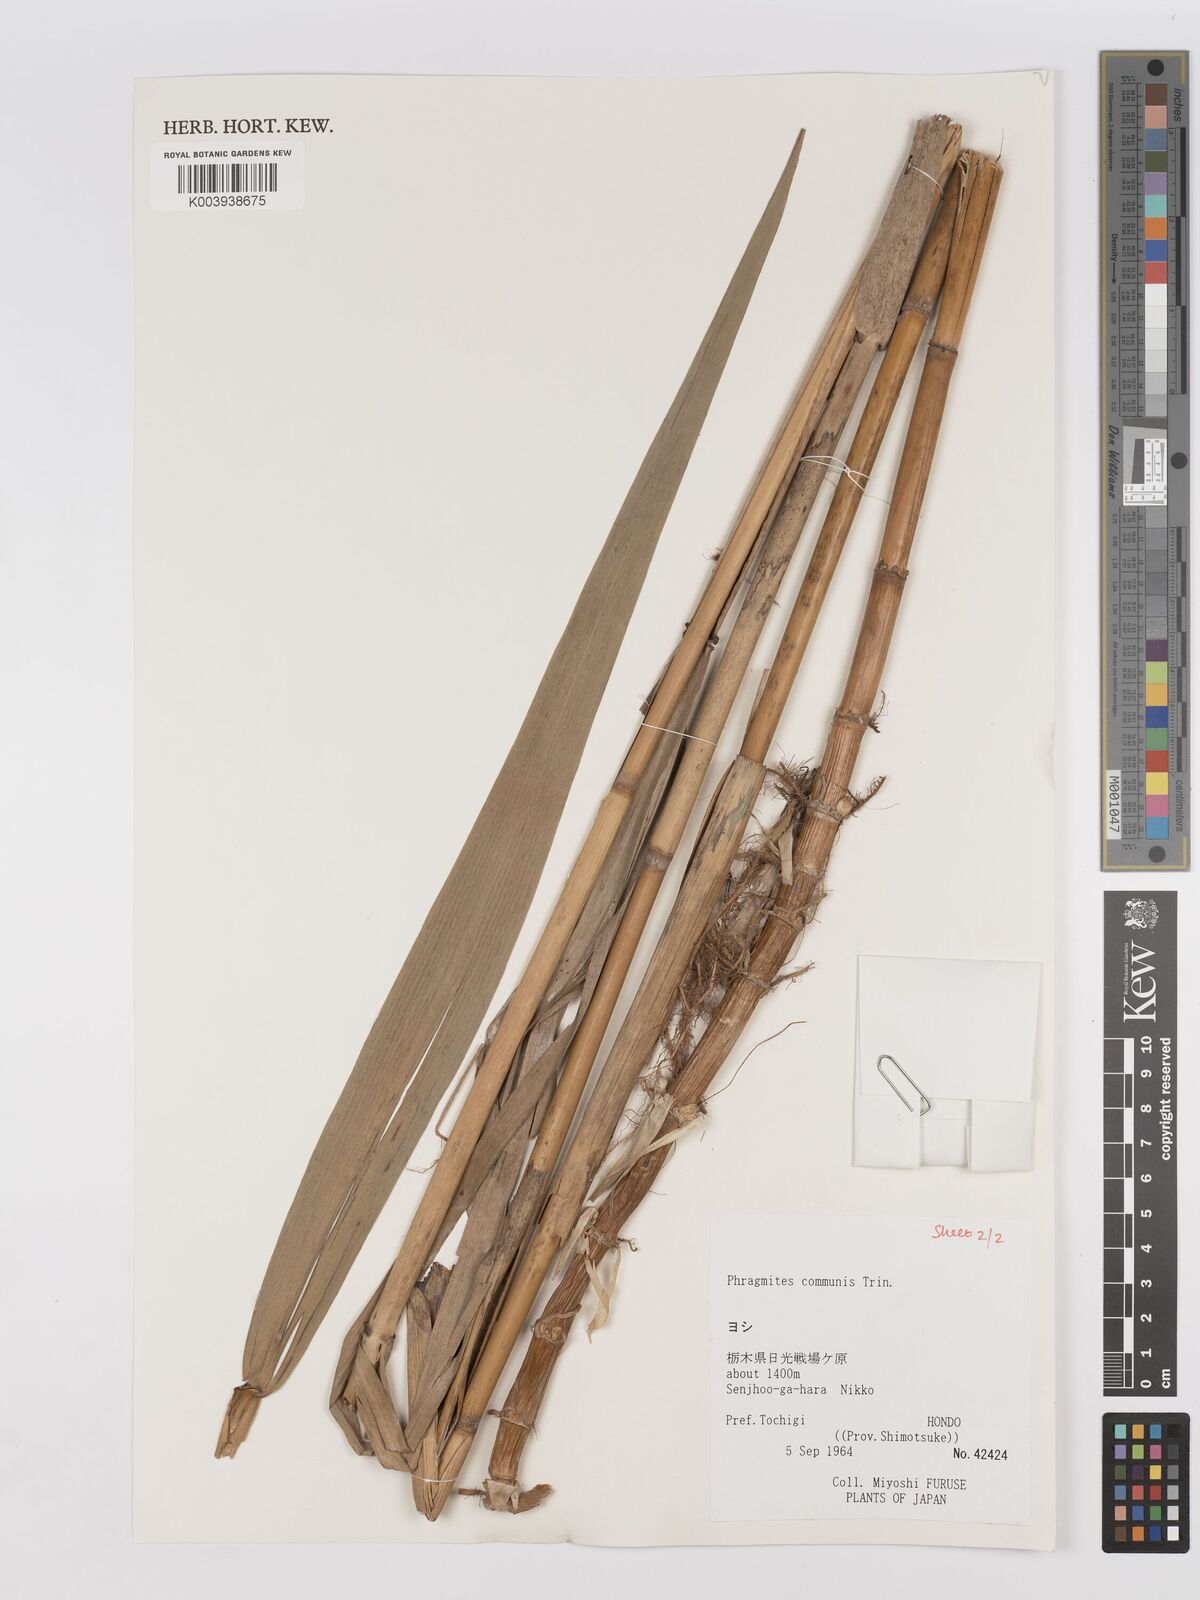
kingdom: Plantae
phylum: Tracheophyta
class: Liliopsida
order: Poales
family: Poaceae
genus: Phragmites
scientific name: Phragmites australis
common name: Common reed
